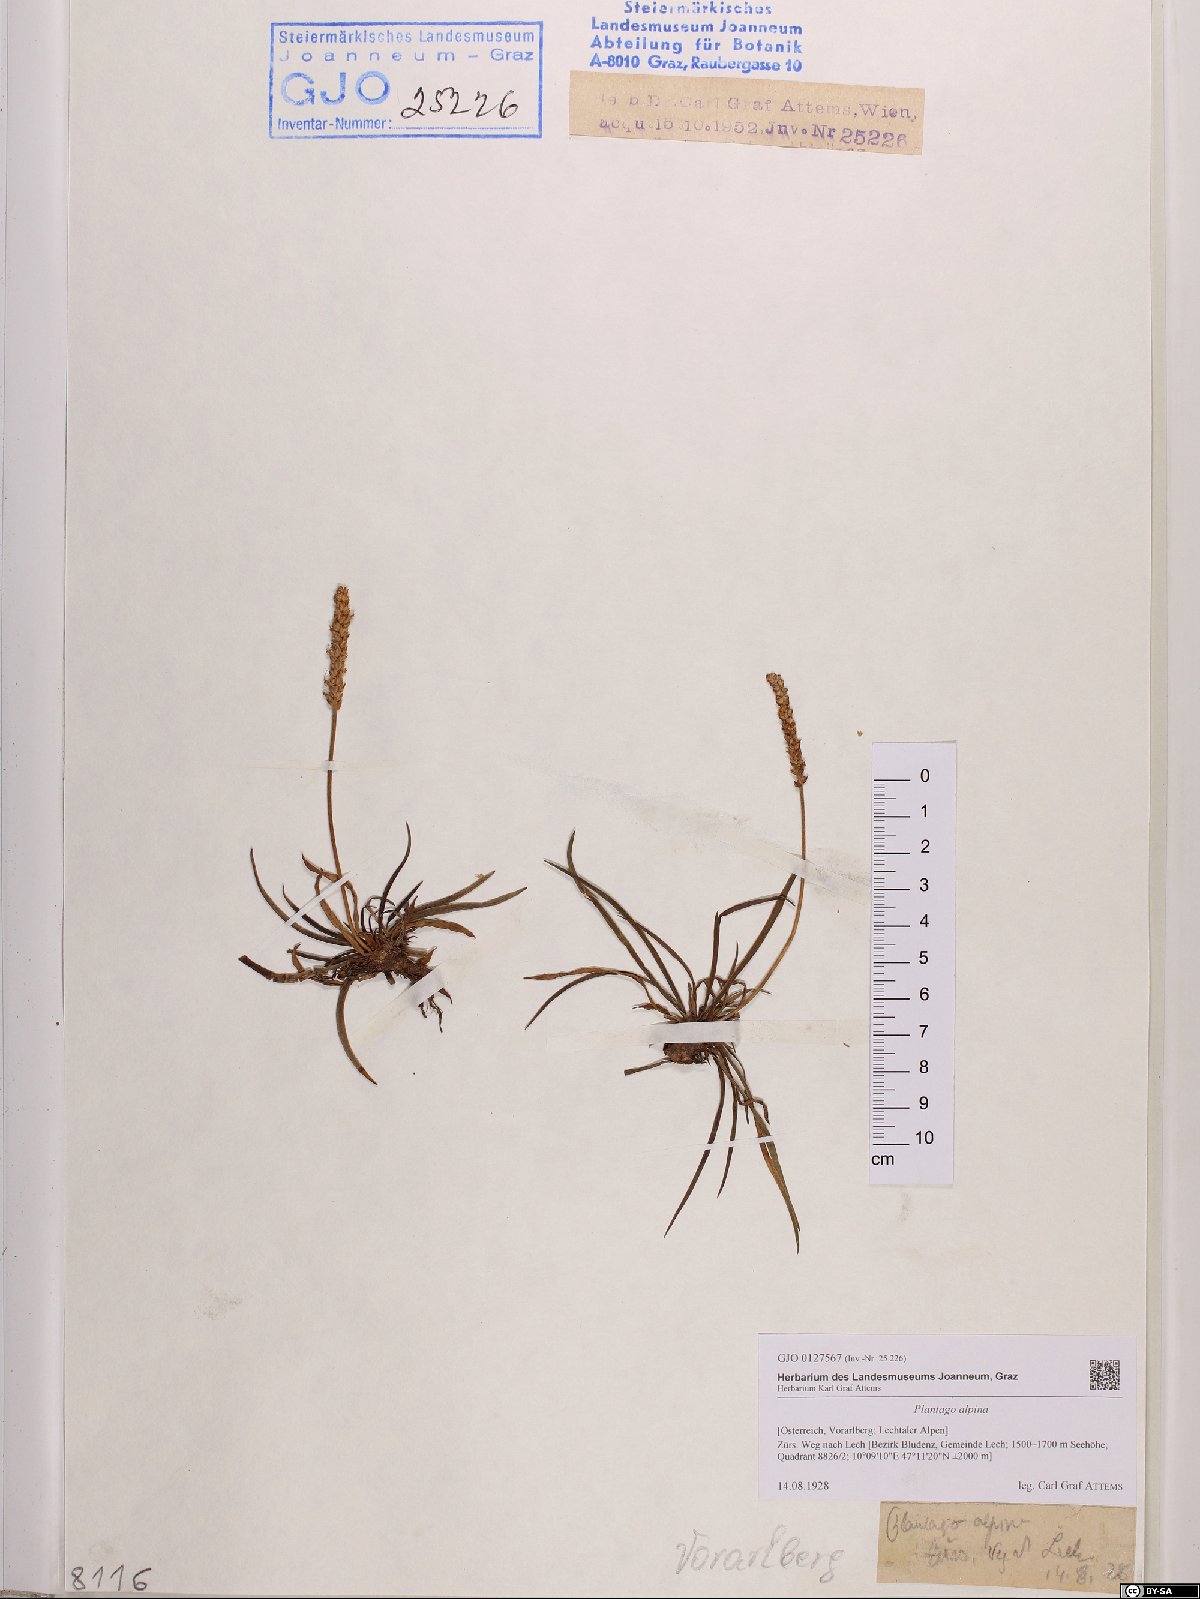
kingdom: Plantae
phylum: Tracheophyta
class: Magnoliopsida
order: Lamiales
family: Plantaginaceae
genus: Plantago
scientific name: Plantago alpina
